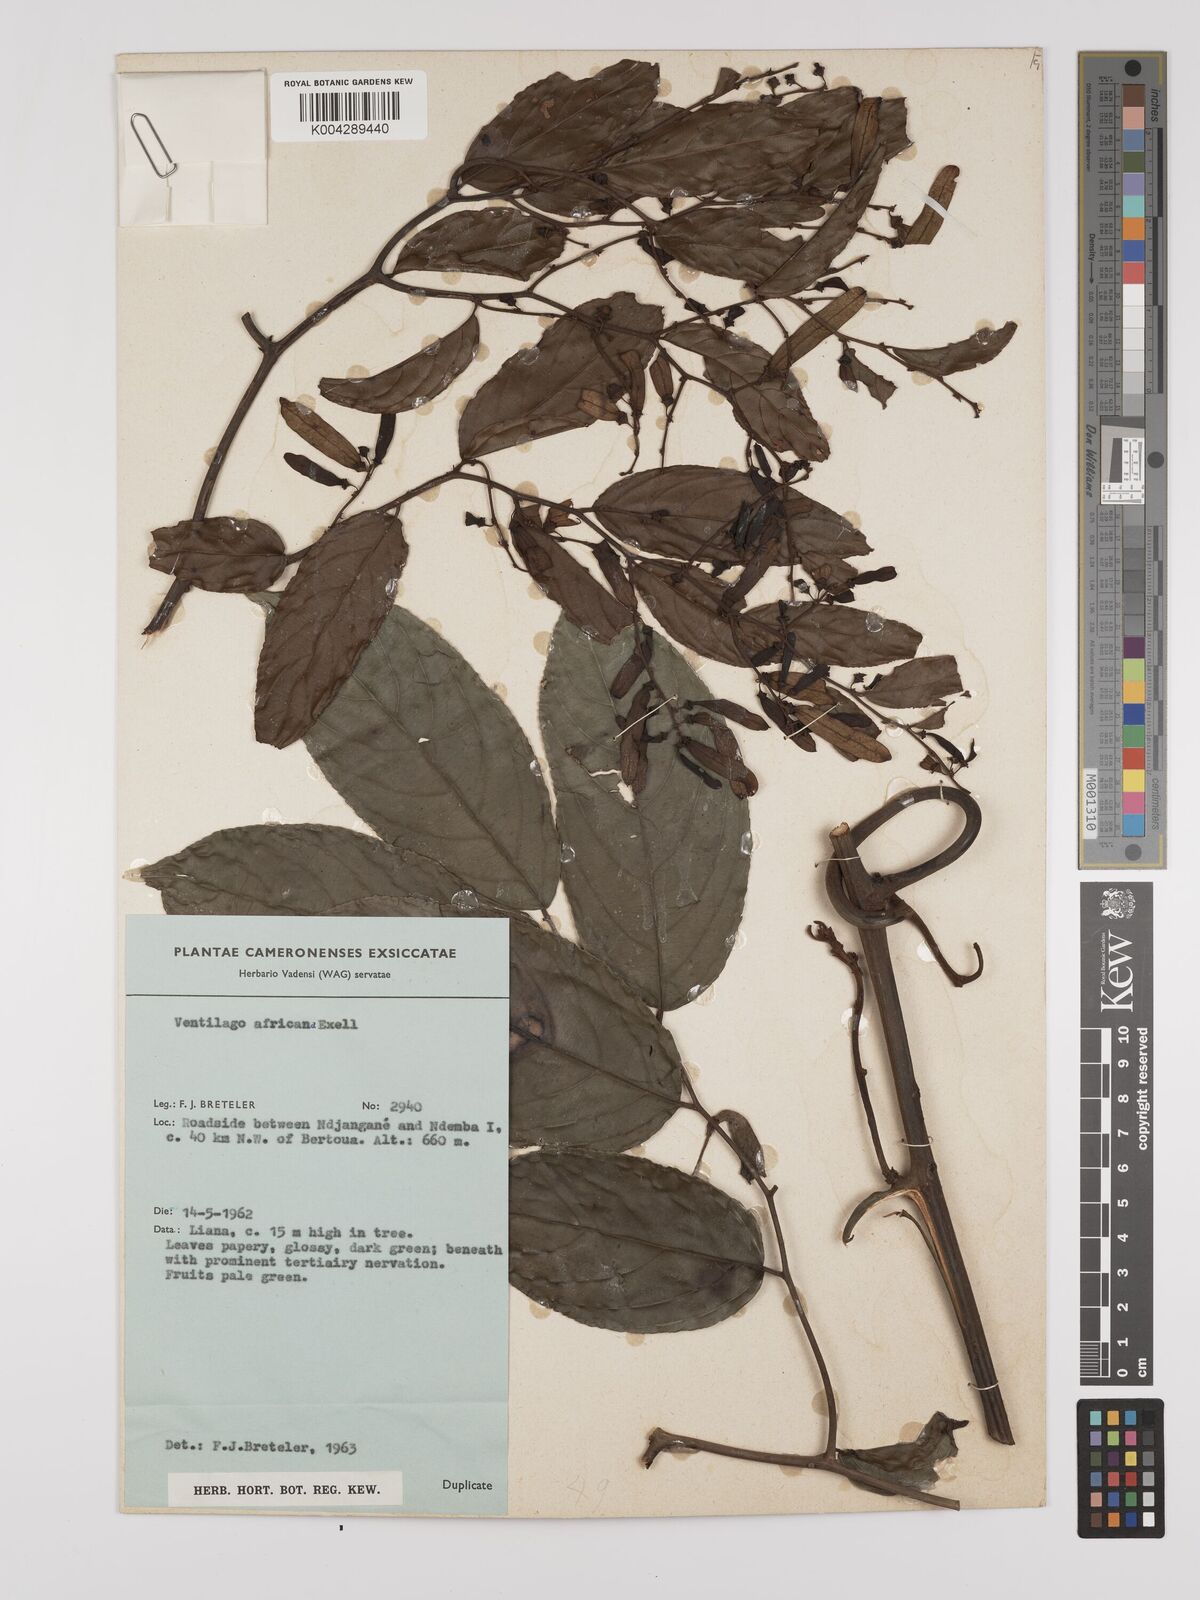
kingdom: Plantae
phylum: Tracheophyta
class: Magnoliopsida
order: Rosales
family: Rhamnaceae
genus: Ventilago
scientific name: Ventilago africana
